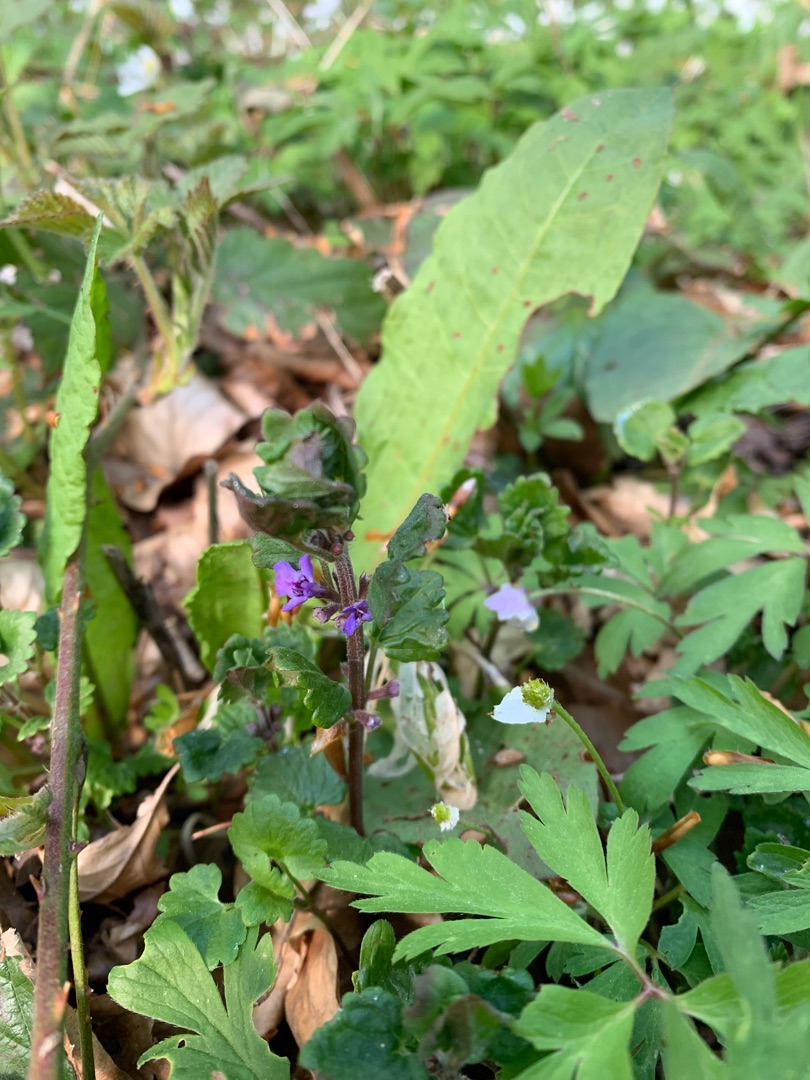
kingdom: Plantae
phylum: Tracheophyta
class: Magnoliopsida
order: Lamiales
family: Lamiaceae
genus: Glechoma
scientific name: Glechoma hederacea
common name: Korsknap
